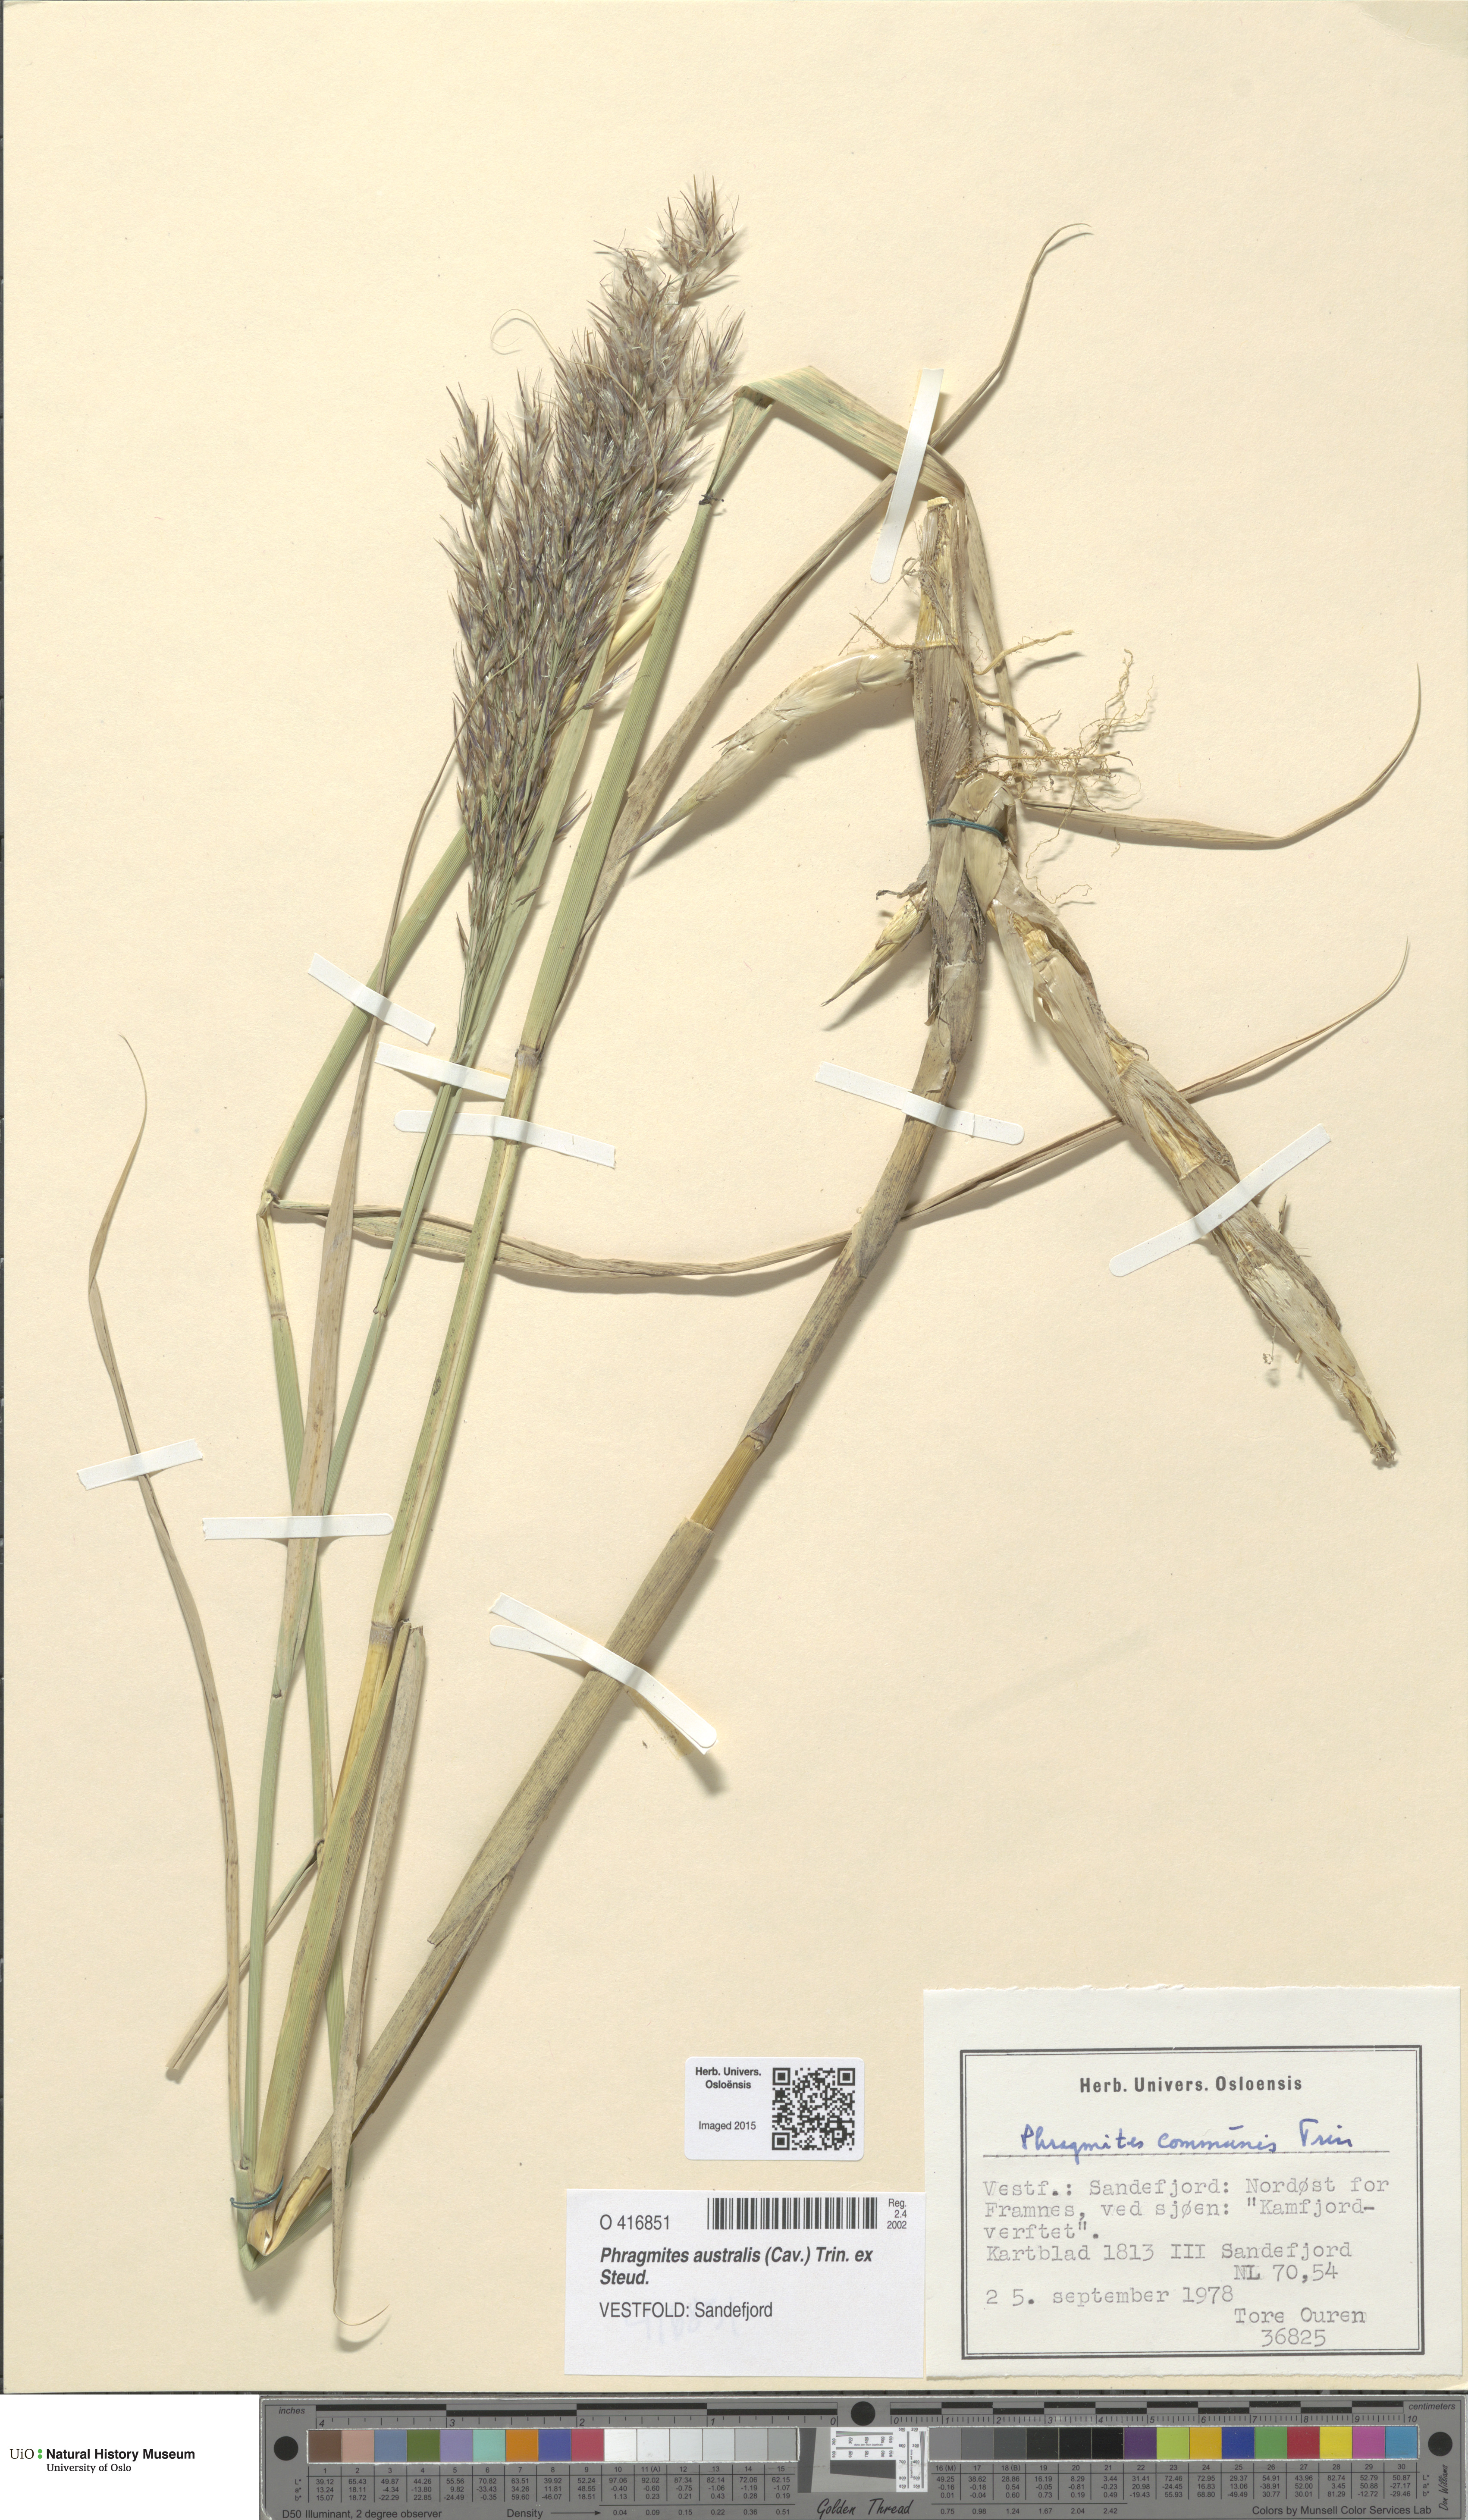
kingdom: Plantae
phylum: Tracheophyta
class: Liliopsida
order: Poales
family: Poaceae
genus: Phragmites
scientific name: Phragmites australis
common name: Common reed
